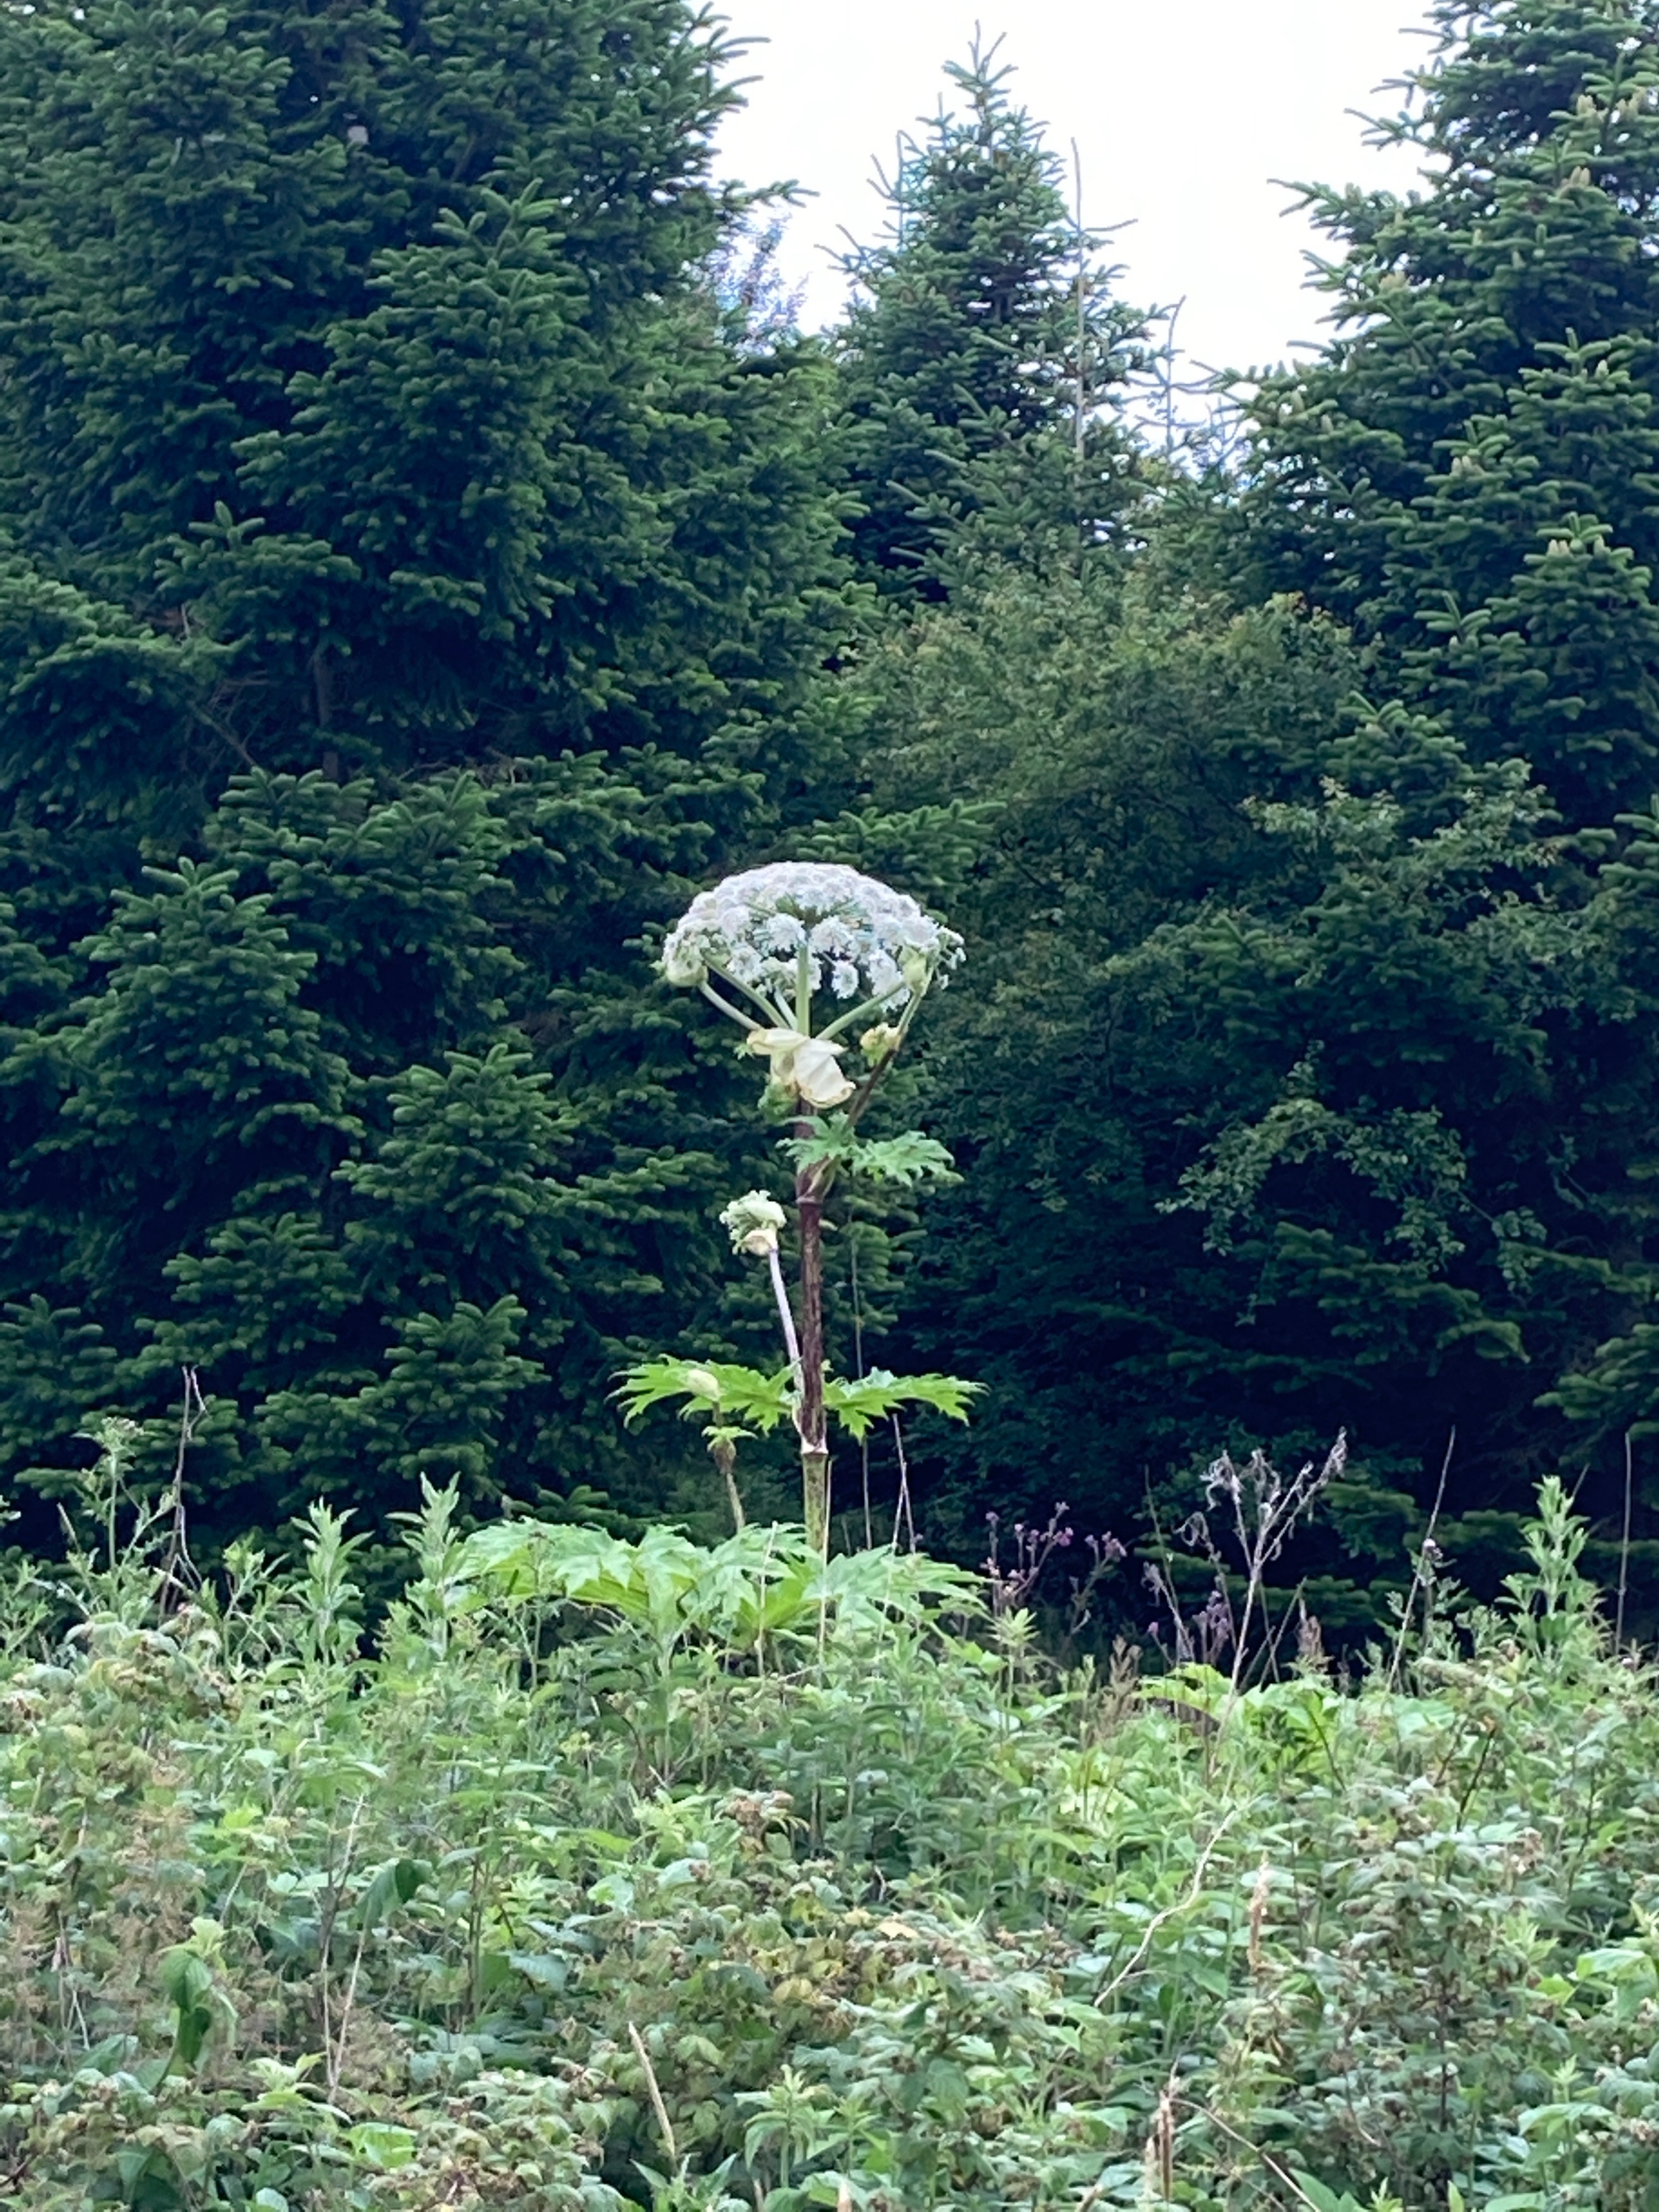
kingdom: Plantae
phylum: Tracheophyta
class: Magnoliopsida
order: Apiales
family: Apiaceae
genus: Heracleum
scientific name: Heracleum mantegazzianum
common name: Kæmpe-bjørneklo
